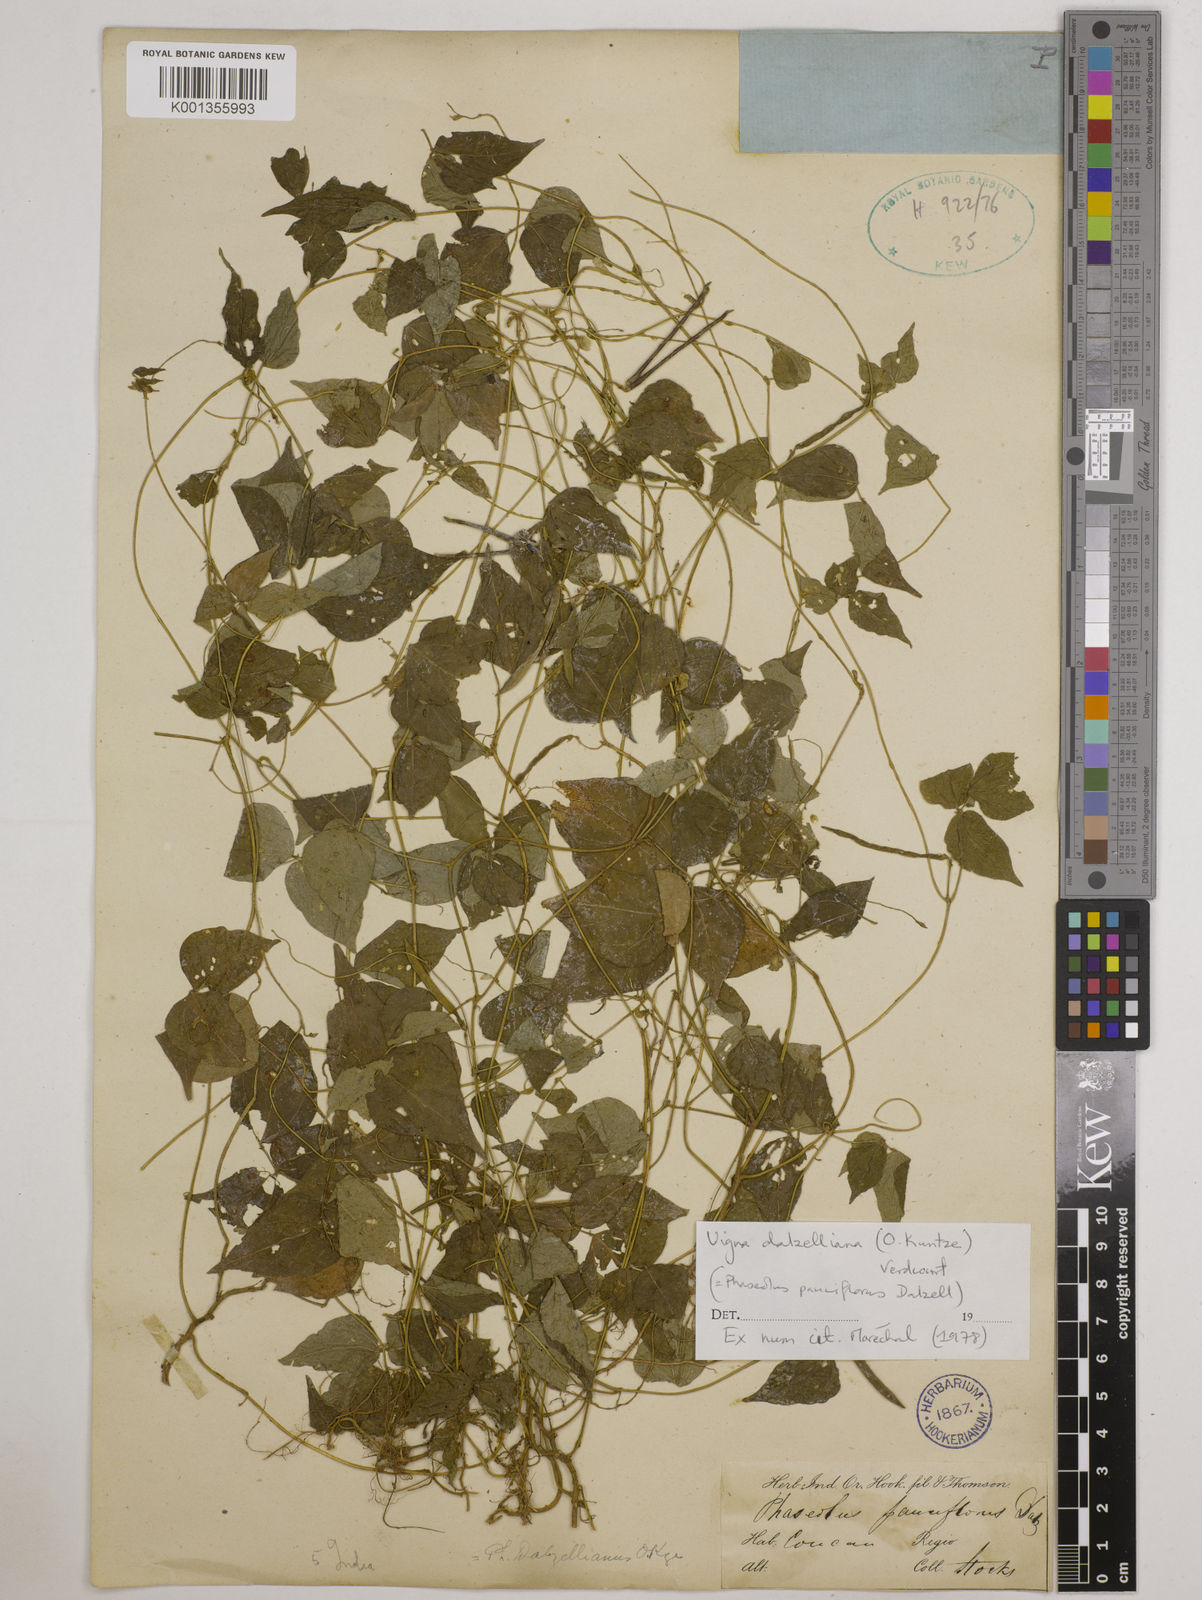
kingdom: Plantae
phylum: Tracheophyta
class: Magnoliopsida
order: Fabales
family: Fabaceae
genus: Vigna
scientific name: Vigna dalzelliana
